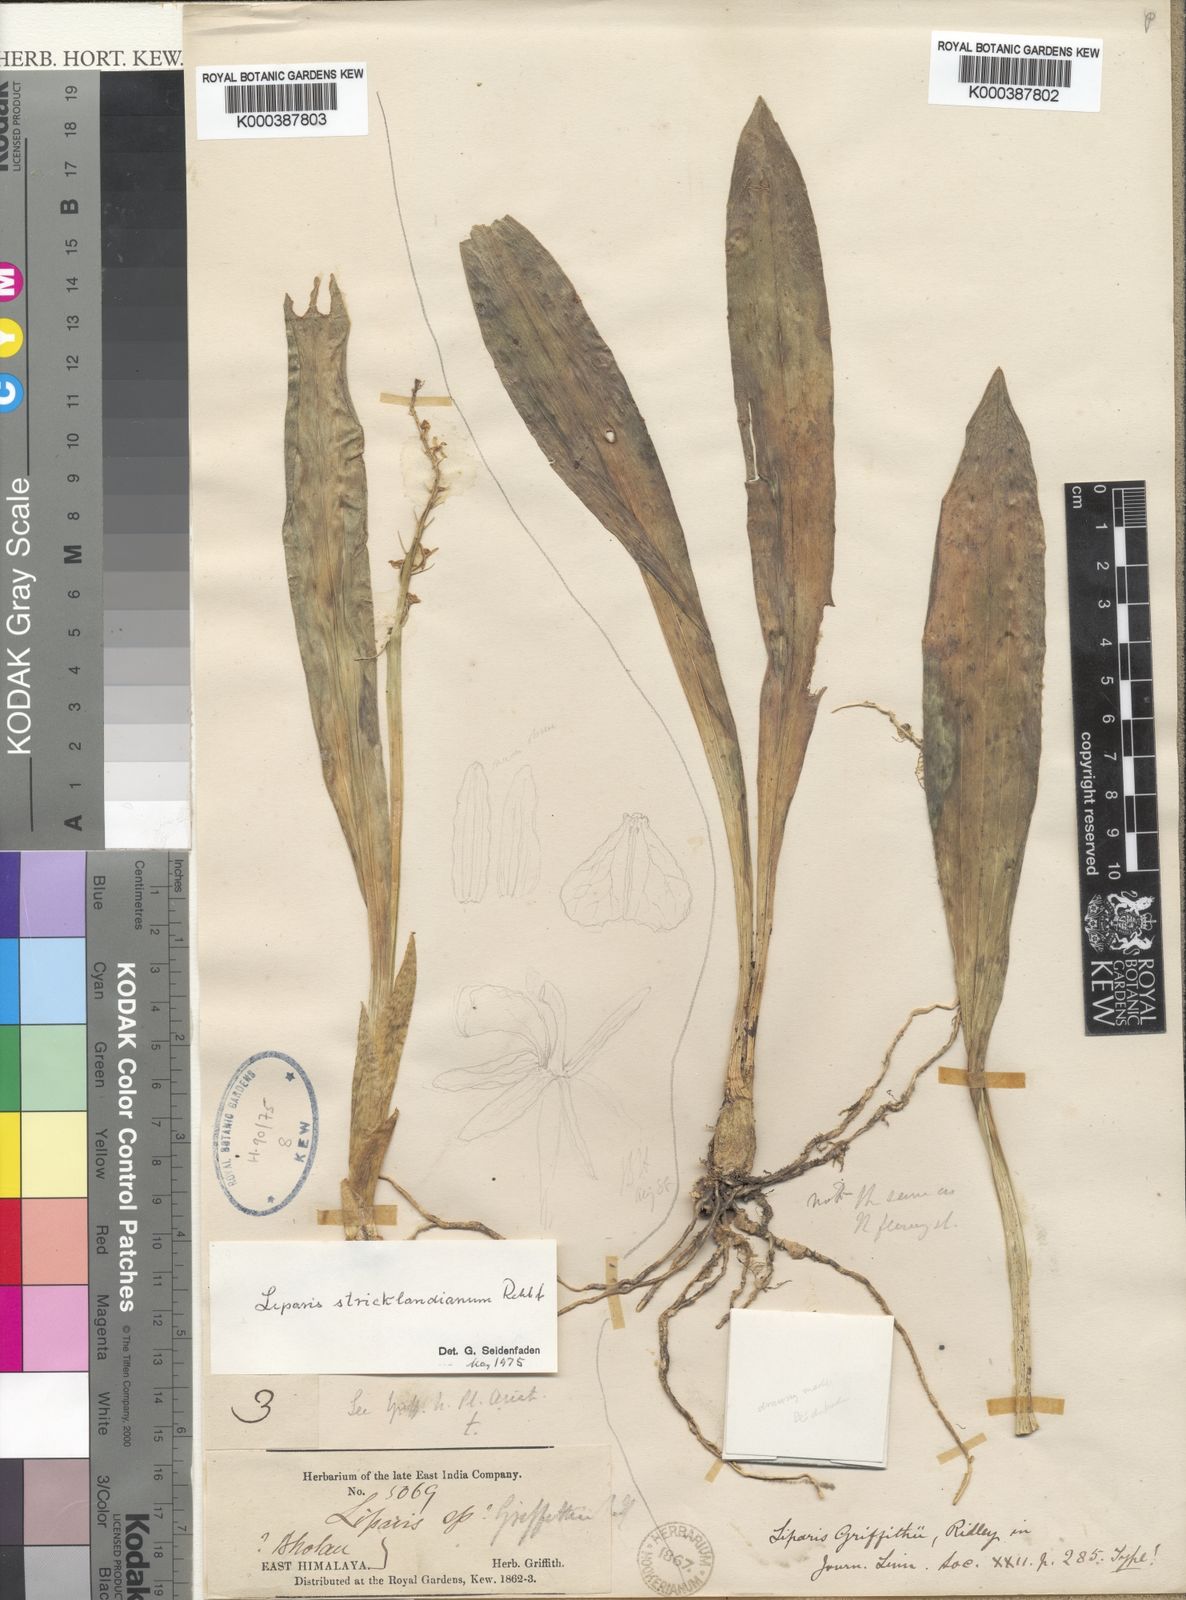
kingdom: Plantae
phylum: Tracheophyta
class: Liliopsida
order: Asparagales
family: Orchidaceae
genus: Liparis
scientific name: Liparis stricklandiana
